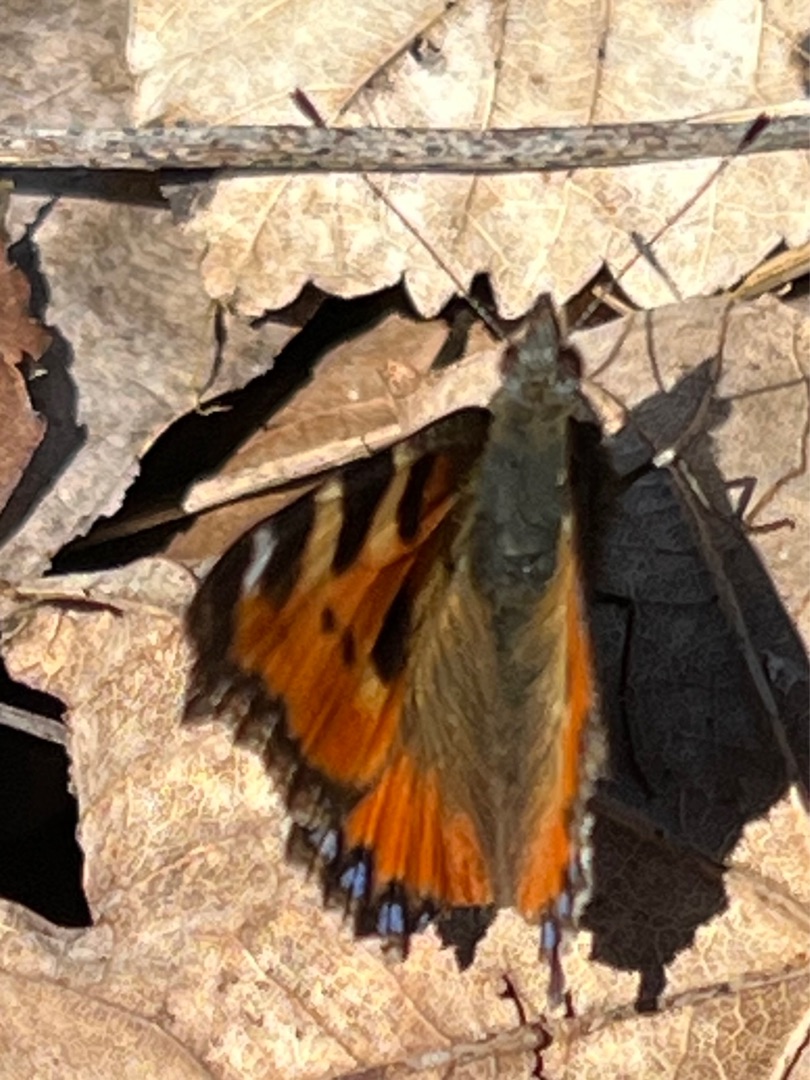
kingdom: Animalia
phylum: Arthropoda
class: Insecta
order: Lepidoptera
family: Nymphalidae
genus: Aglais
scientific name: Aglais urticae
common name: Nældens takvinge
